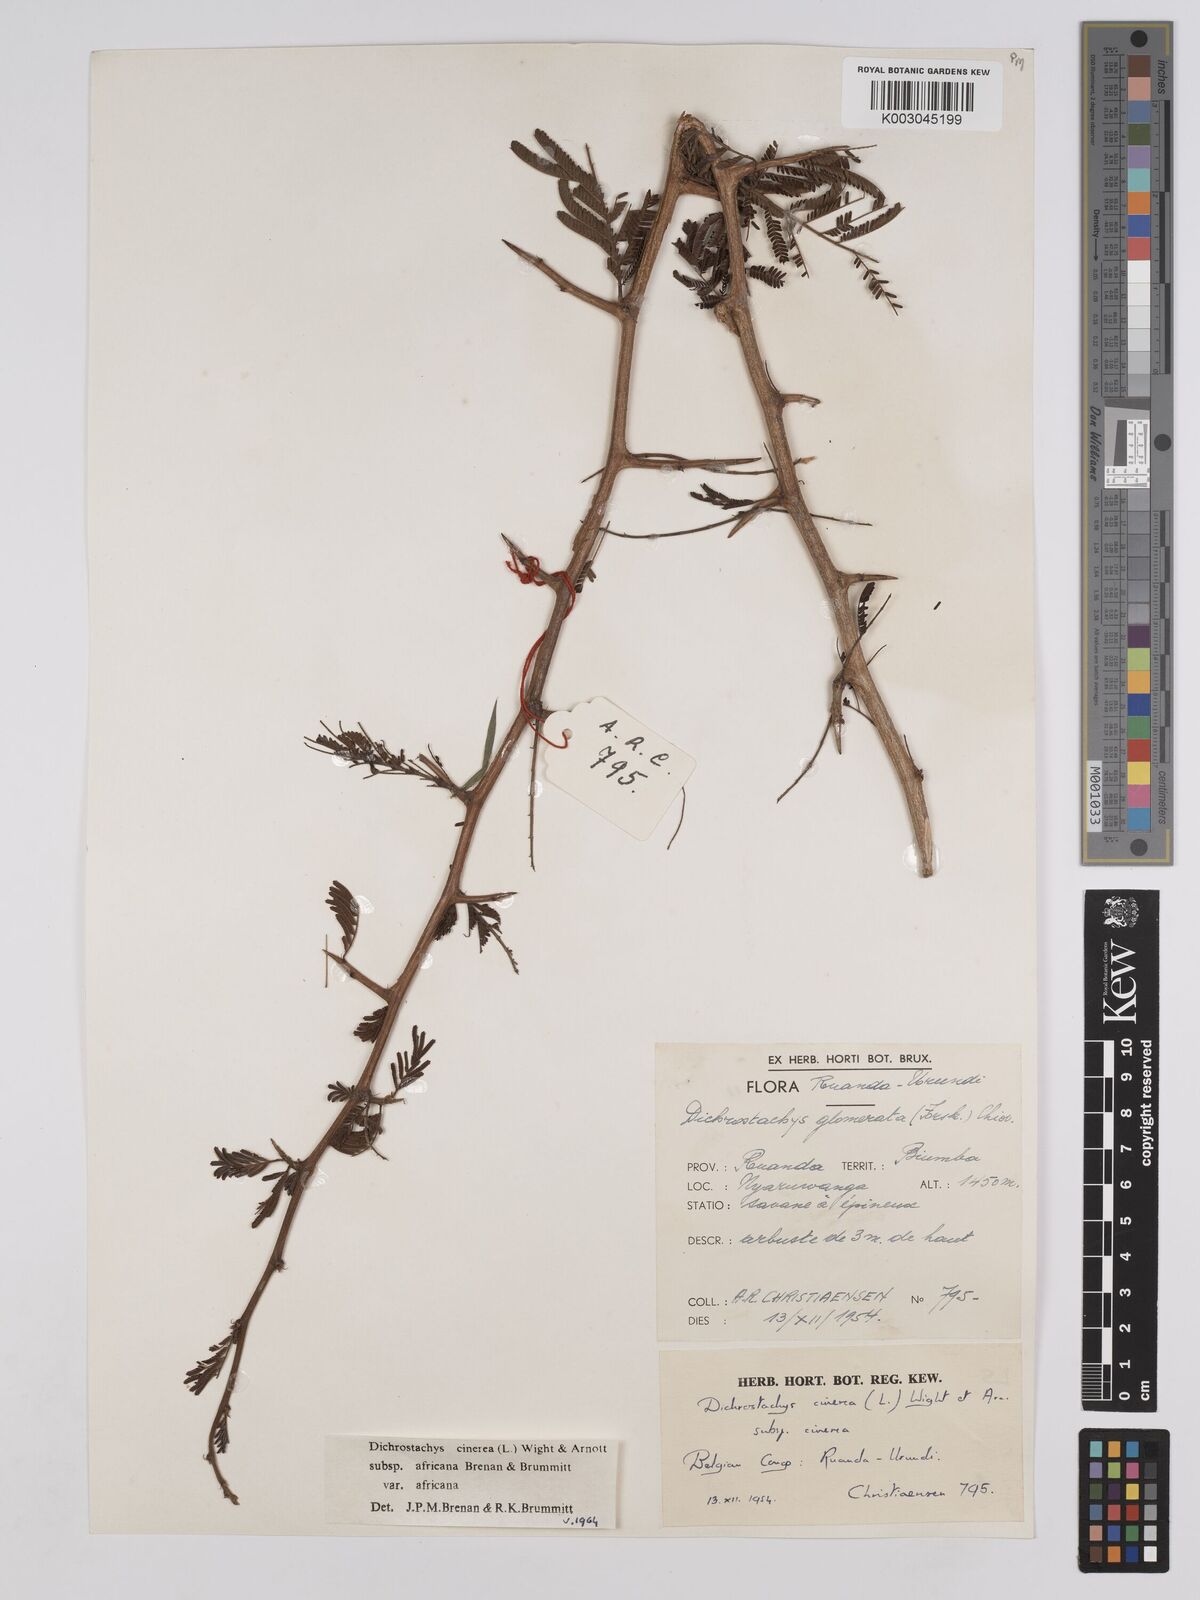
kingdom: Plantae
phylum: Tracheophyta
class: Magnoliopsida
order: Fabales
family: Fabaceae
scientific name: Fabaceae
